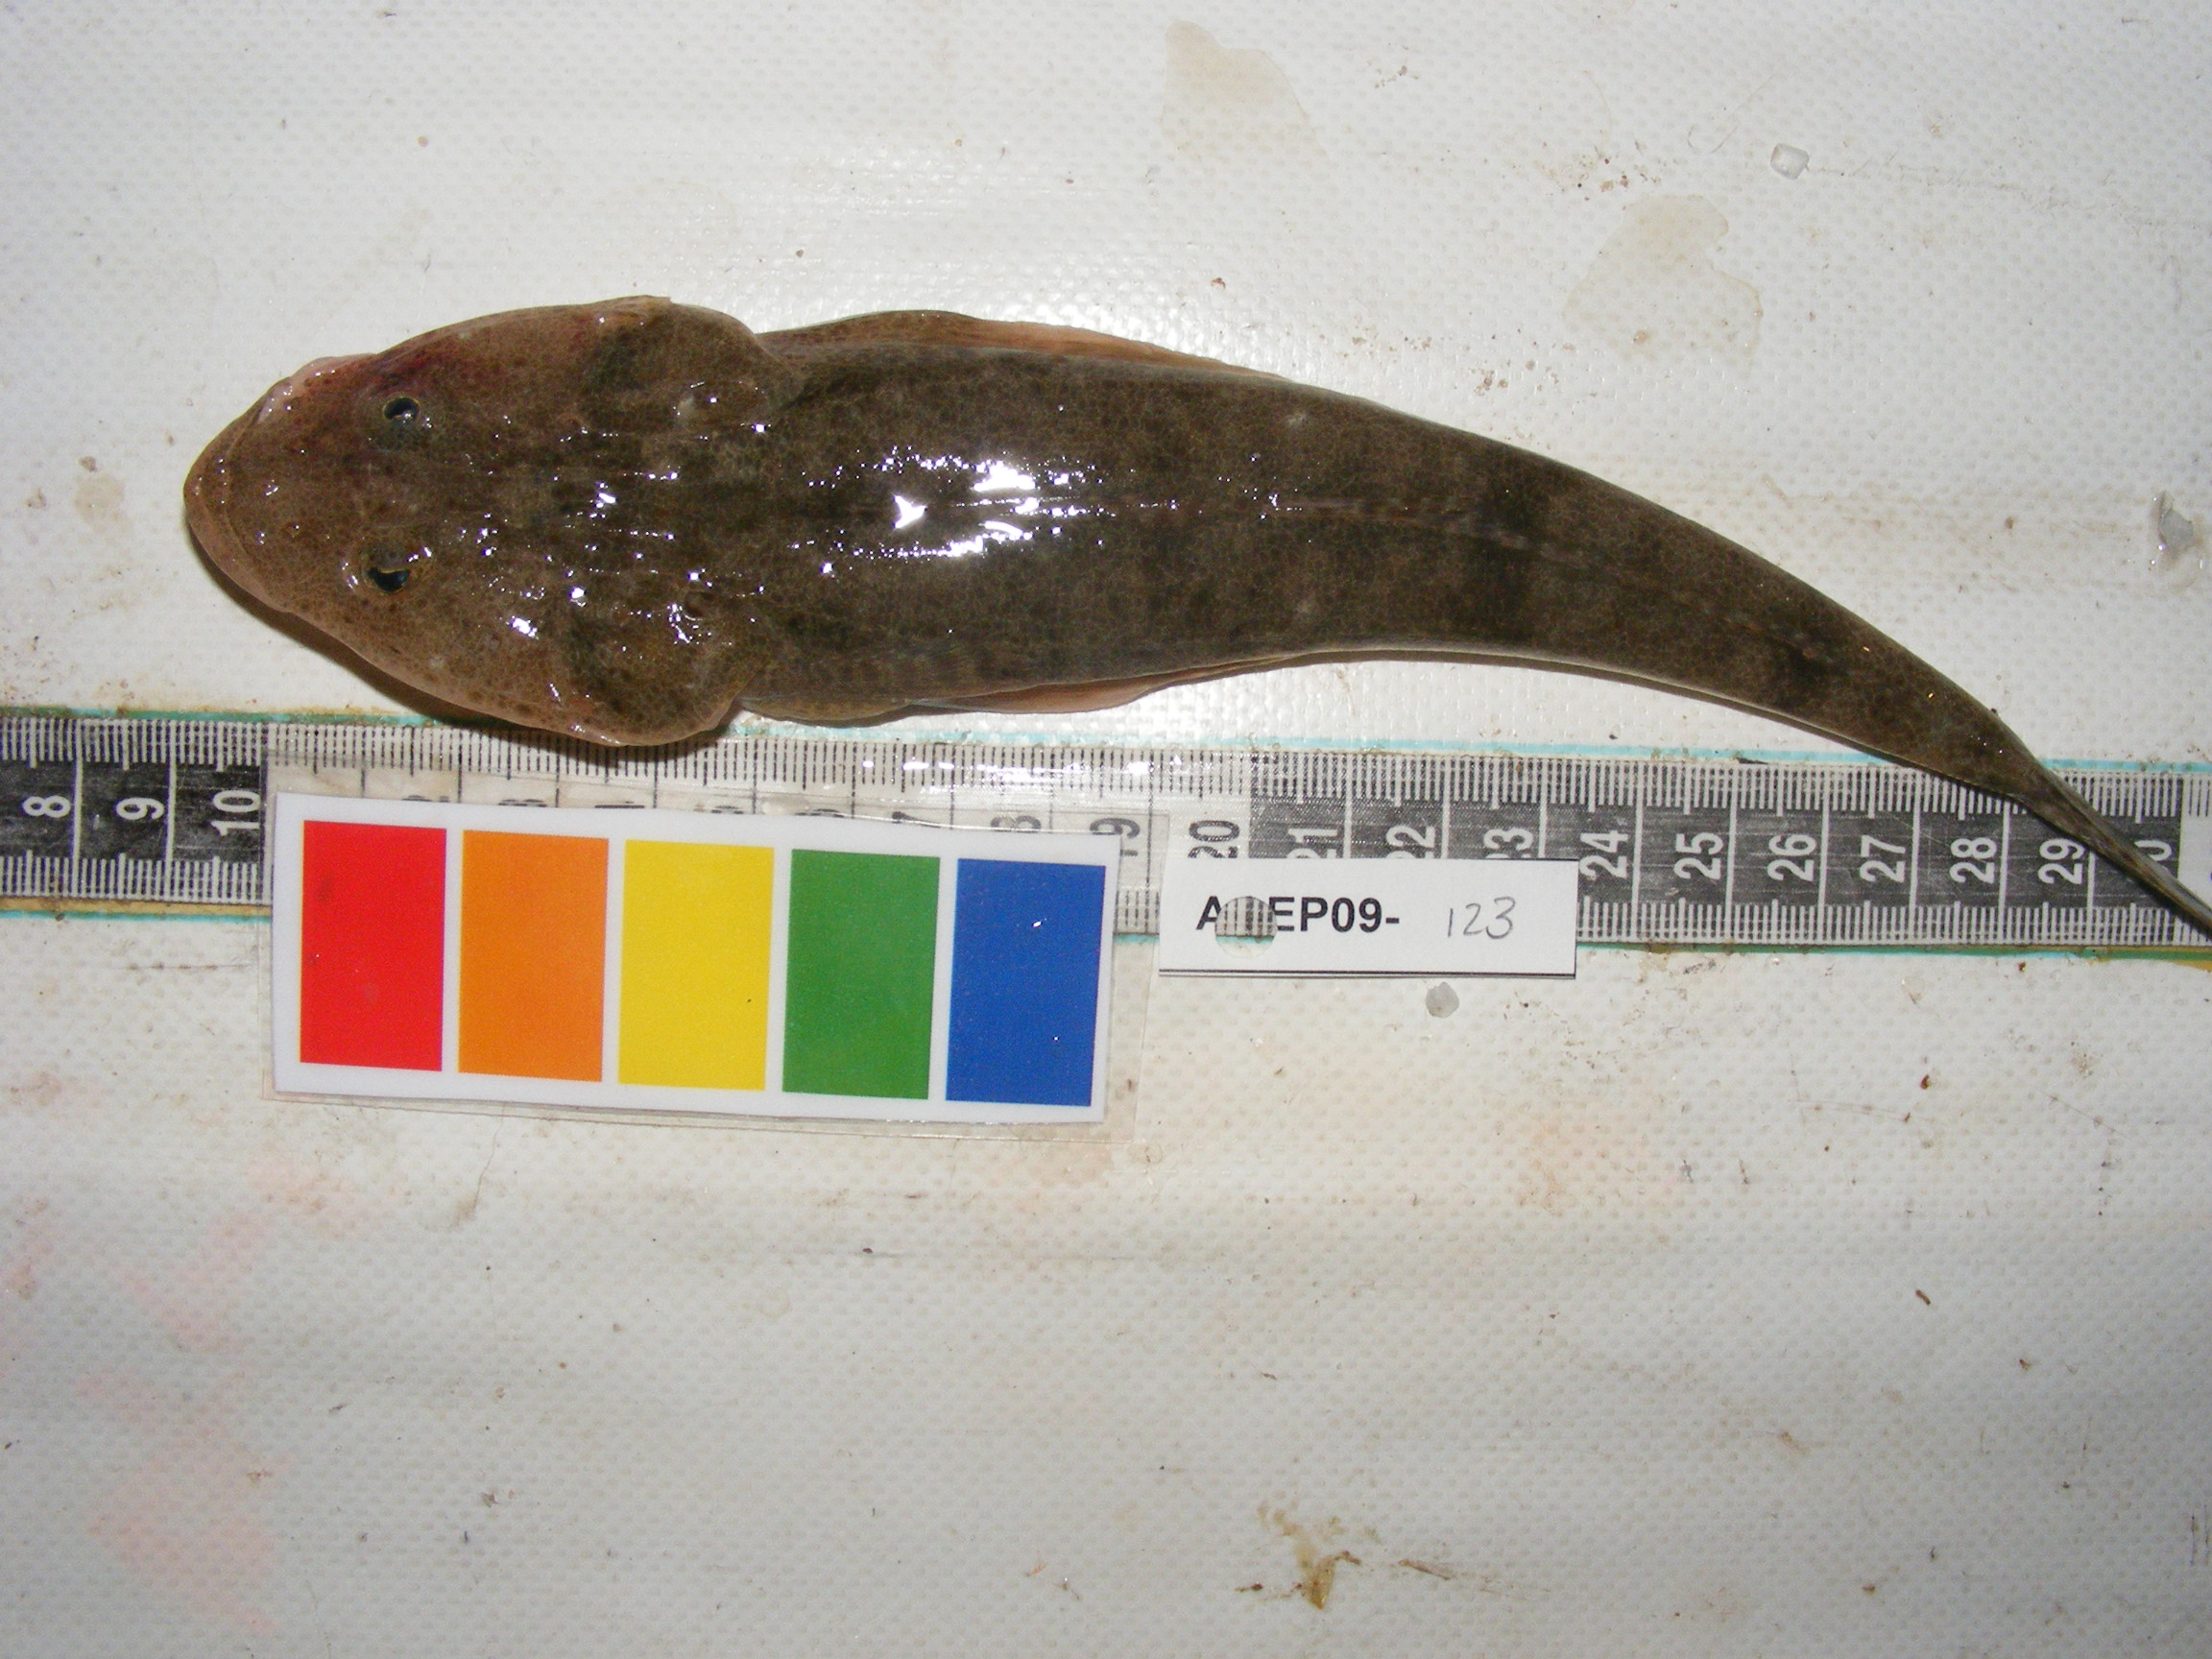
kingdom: Animalia
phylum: Chordata
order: Scorpaeniformes
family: Platycephalidae
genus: Platycephalus
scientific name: Platycephalus indicus
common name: Bartail flathead
